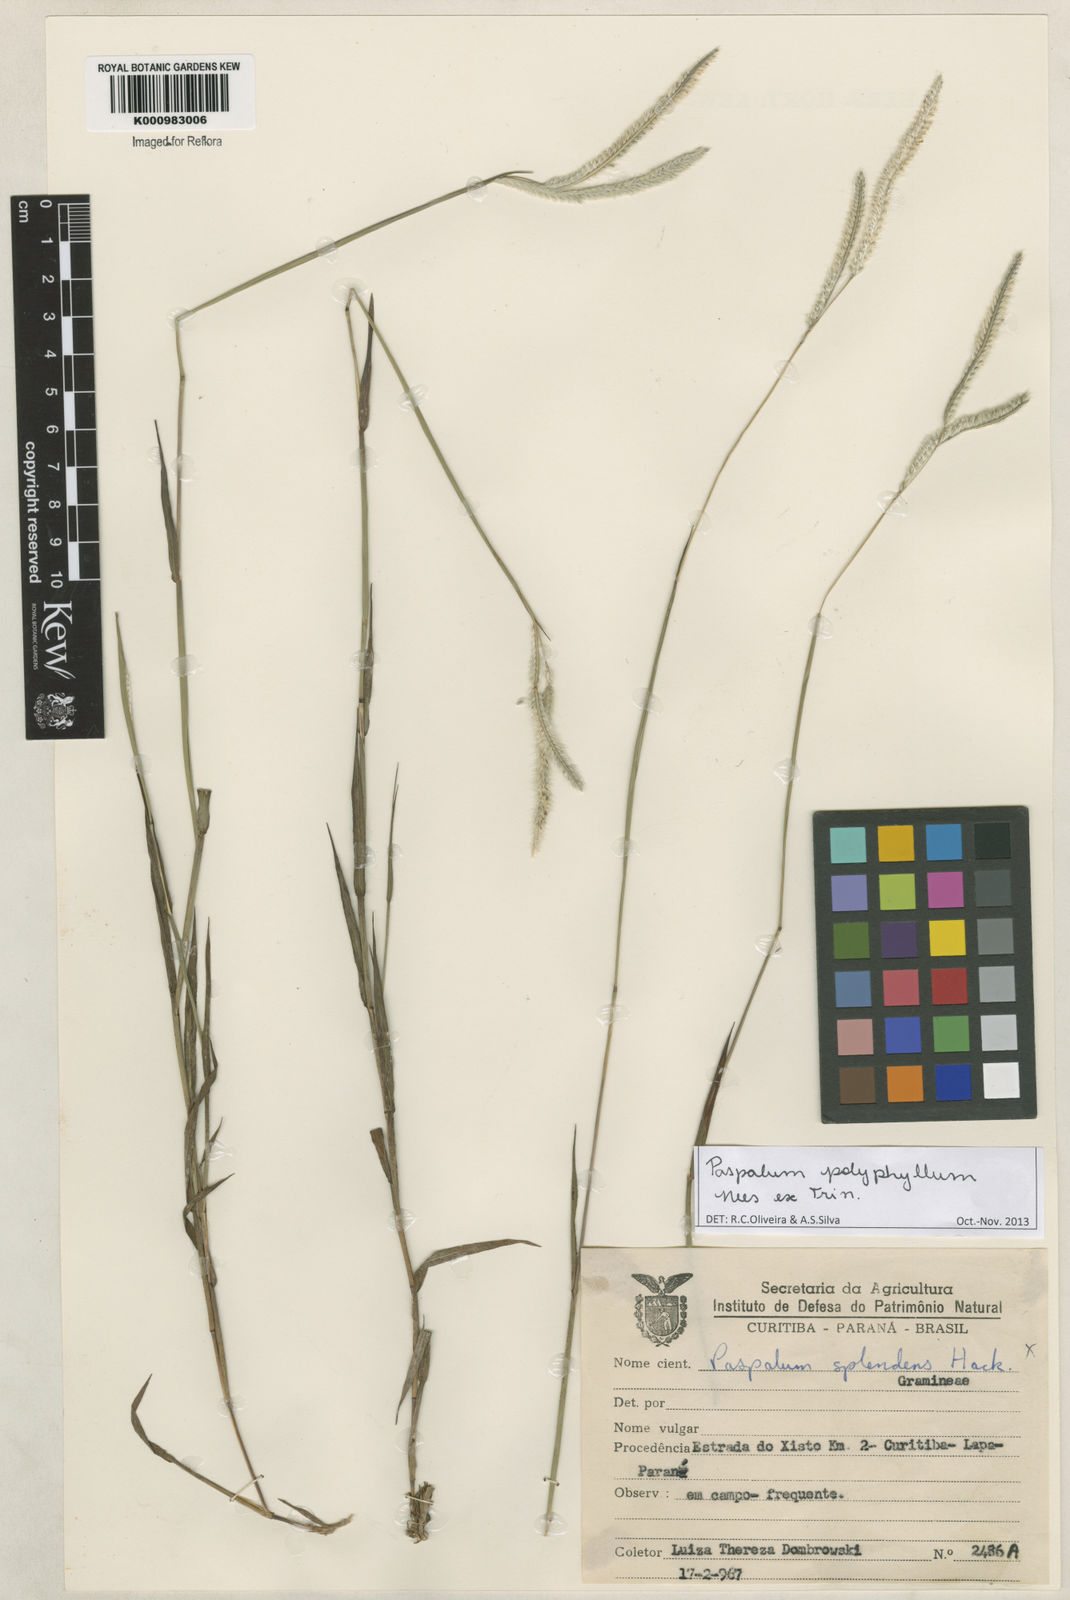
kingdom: Plantae
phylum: Tracheophyta
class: Liliopsida
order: Poales
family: Poaceae
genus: Paspalum
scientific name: Paspalum
